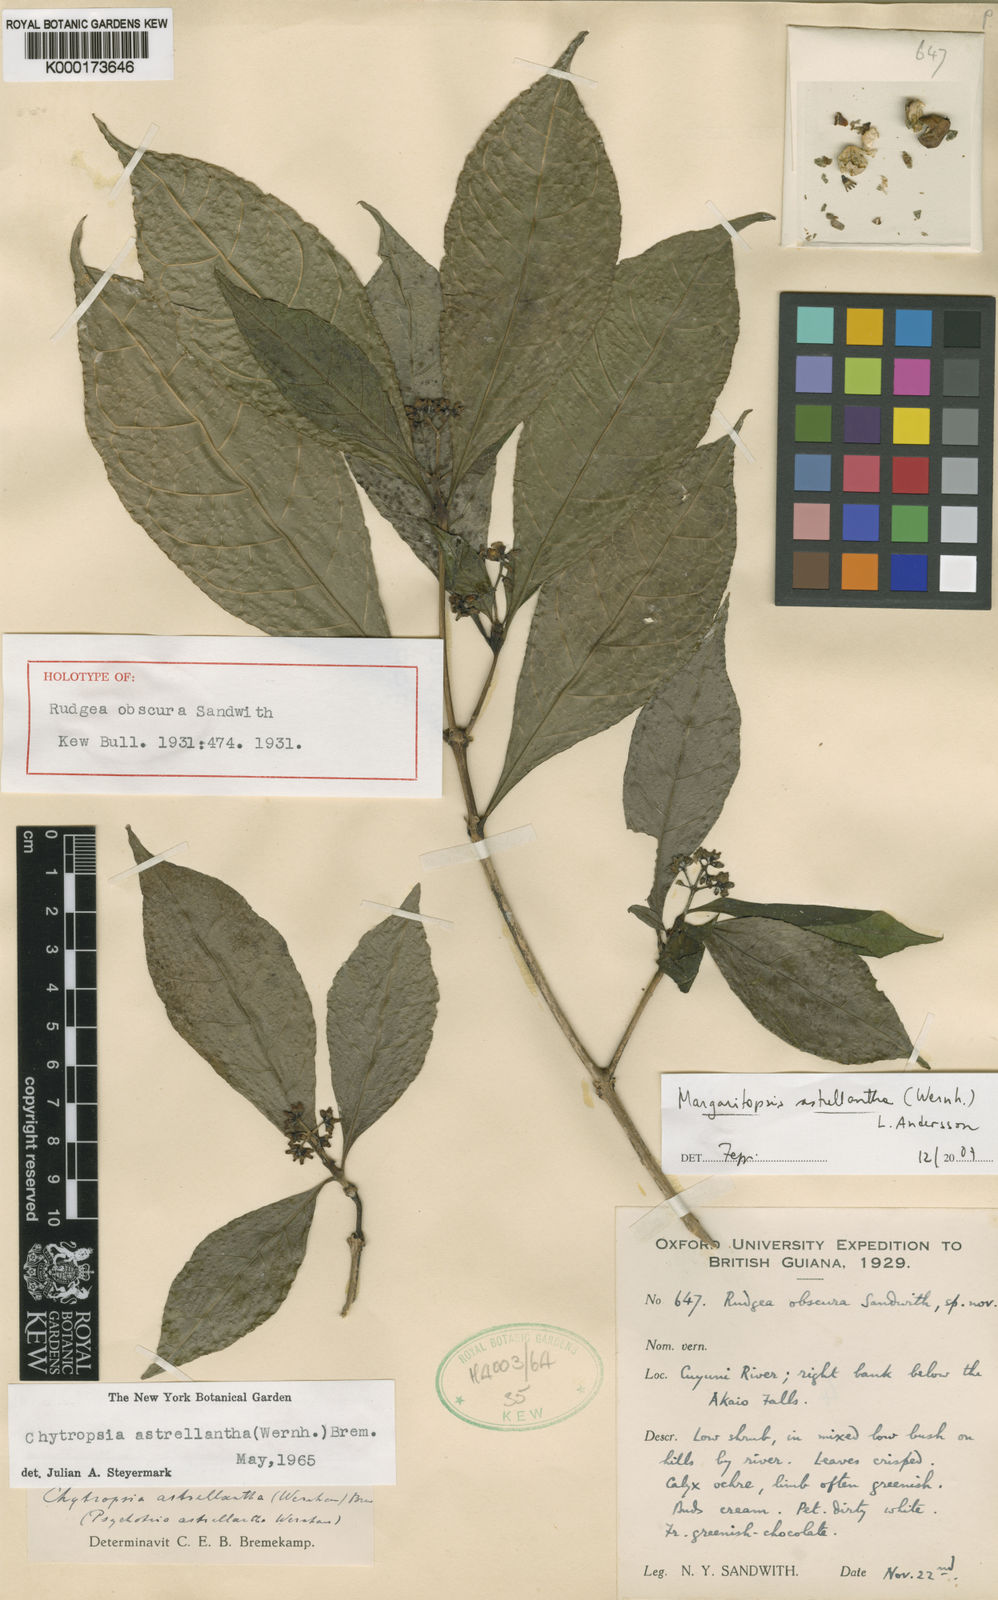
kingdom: Plantae
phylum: Tracheophyta
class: Magnoliopsida
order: Gentianales
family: Rubiaceae
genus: Eumachia
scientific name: Eumachia astrellantha
